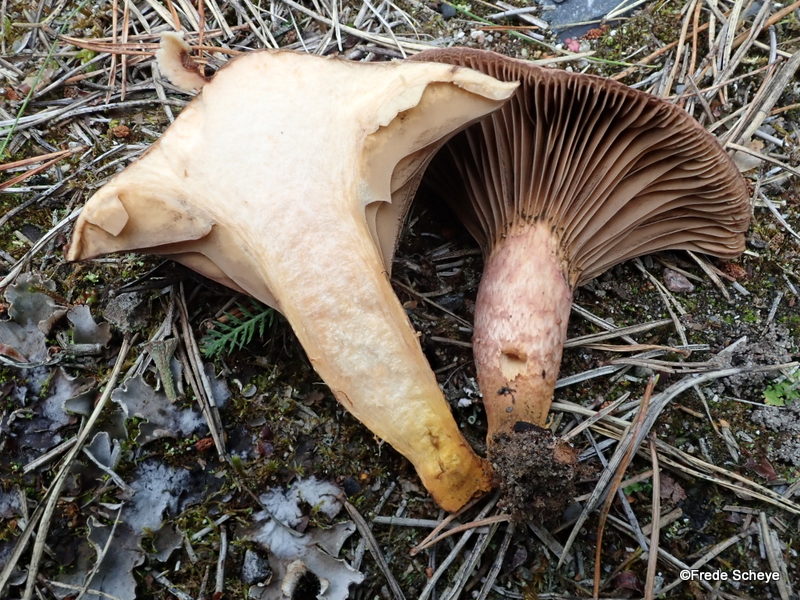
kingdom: Fungi
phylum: Basidiomycota
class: Agaricomycetes
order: Boletales
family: Gomphidiaceae
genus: Chroogomphus
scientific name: Chroogomphus rutilus
